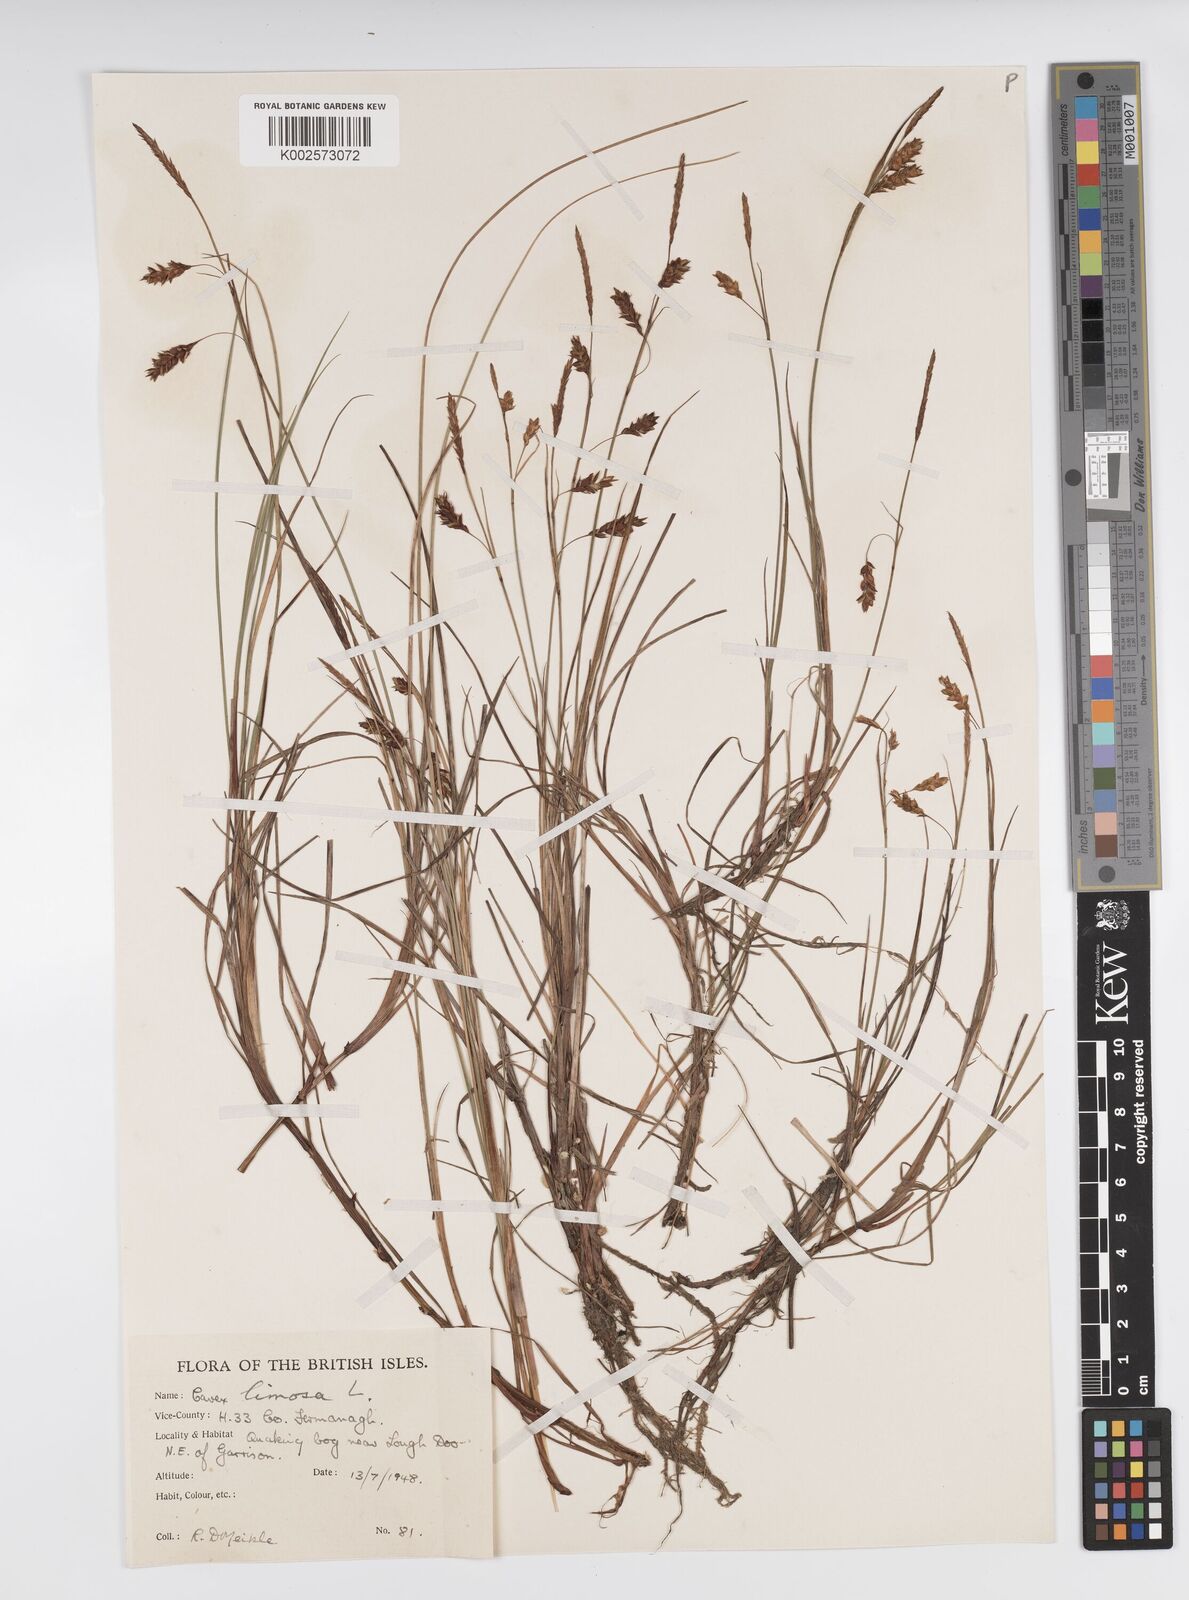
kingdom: Plantae
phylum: Tracheophyta
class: Liliopsida
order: Poales
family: Cyperaceae
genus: Carex
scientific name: Carex limosa
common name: Bog sedge
